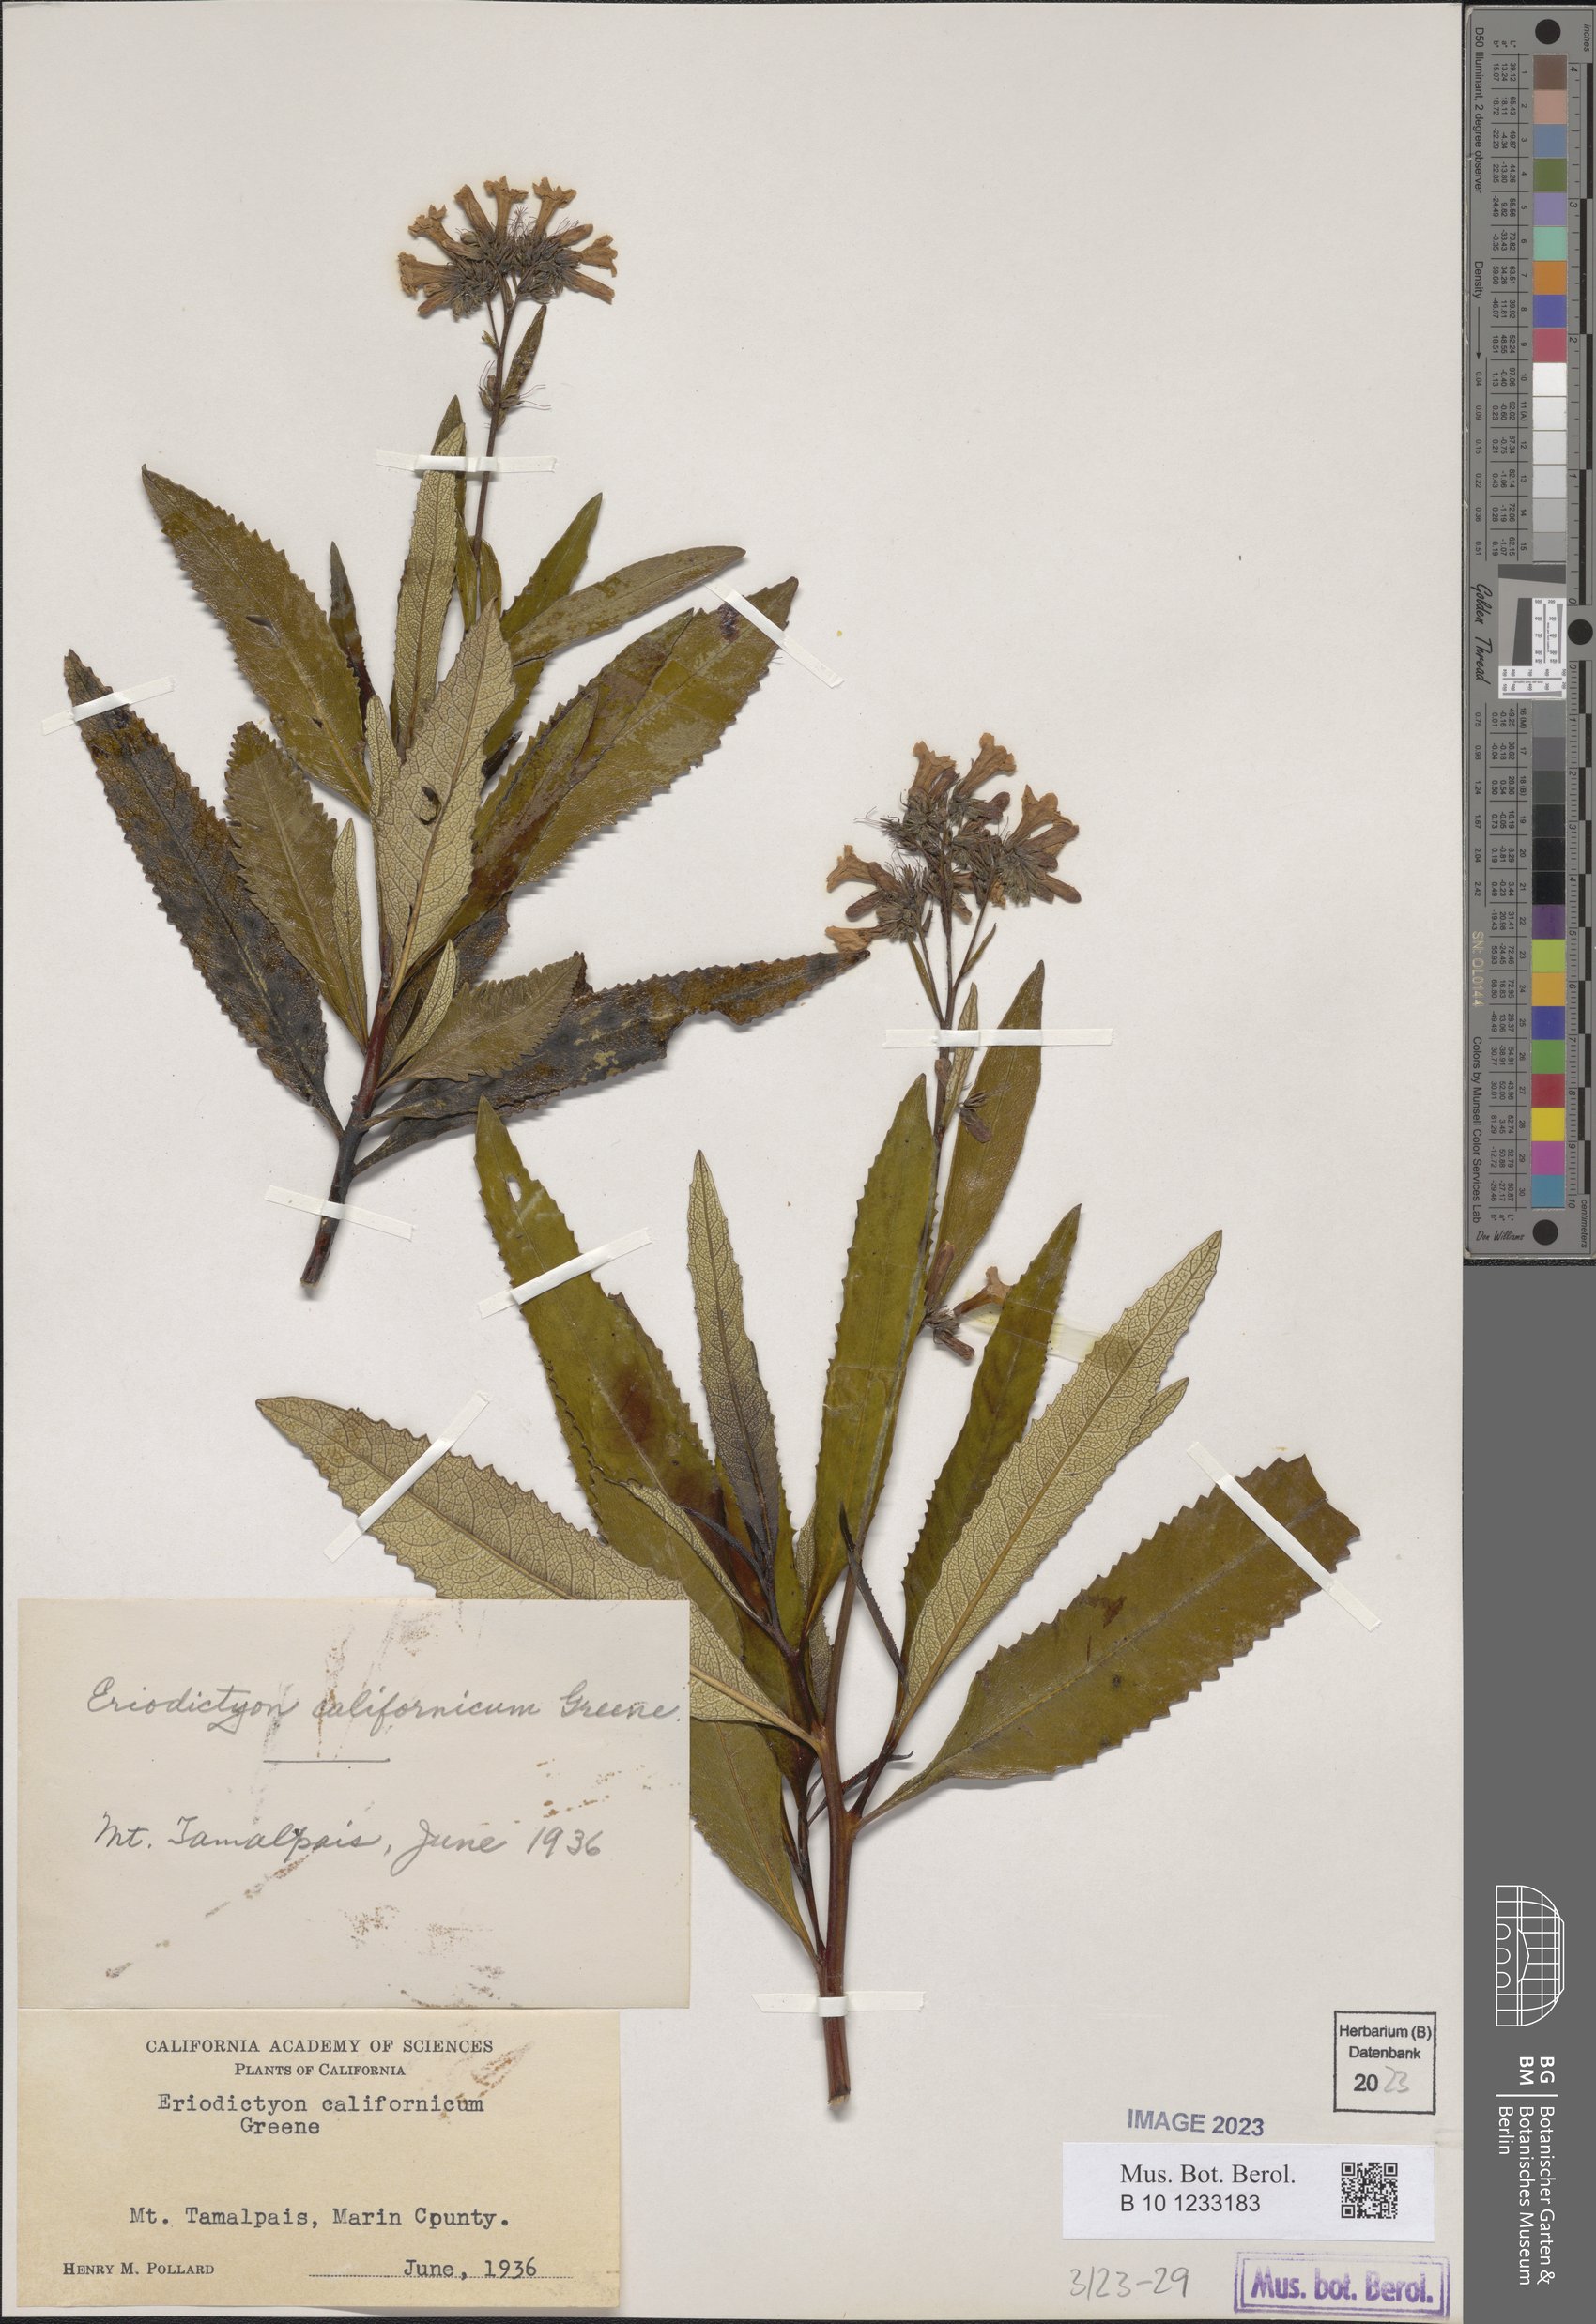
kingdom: Plantae
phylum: Tracheophyta
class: Magnoliopsida
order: Boraginales
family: Namaceae
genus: Eriodictyon
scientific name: Eriodictyon crassifolium
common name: Thick-leaf yerba-santa
